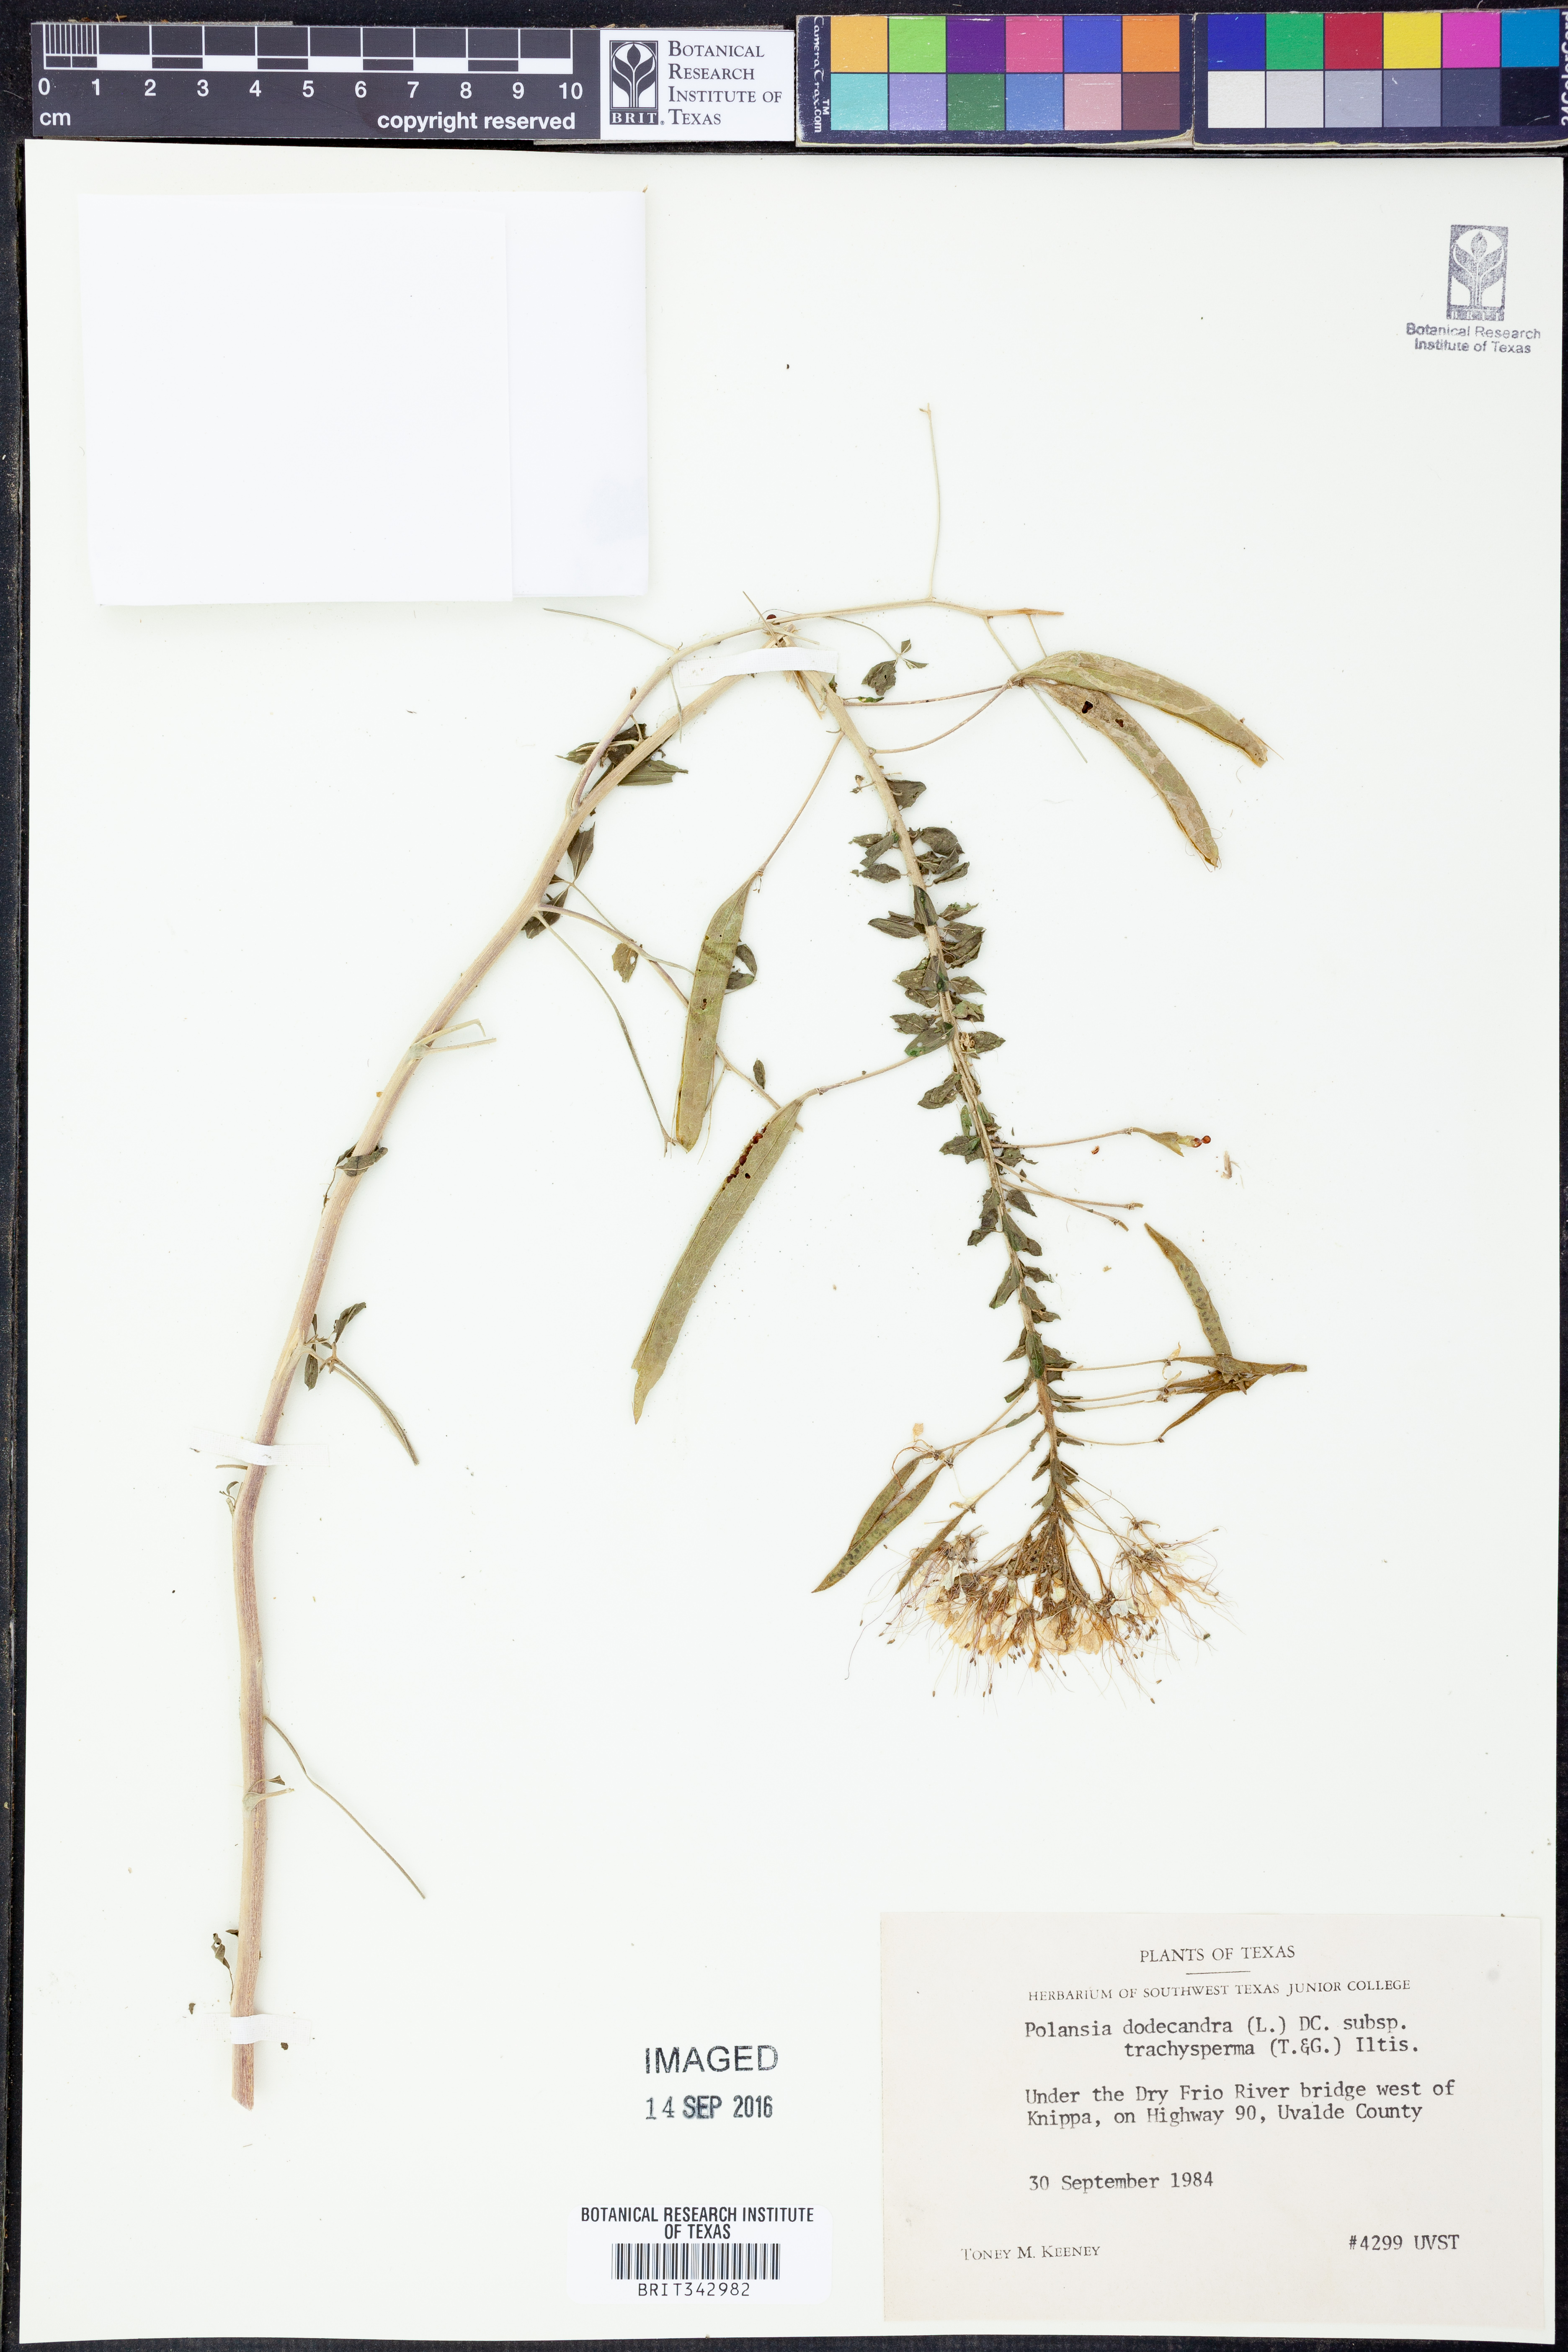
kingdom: Plantae
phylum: Tracheophyta
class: Magnoliopsida
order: Brassicales
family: Cleomaceae
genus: Polanisia
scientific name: Polanisia trachysperma
